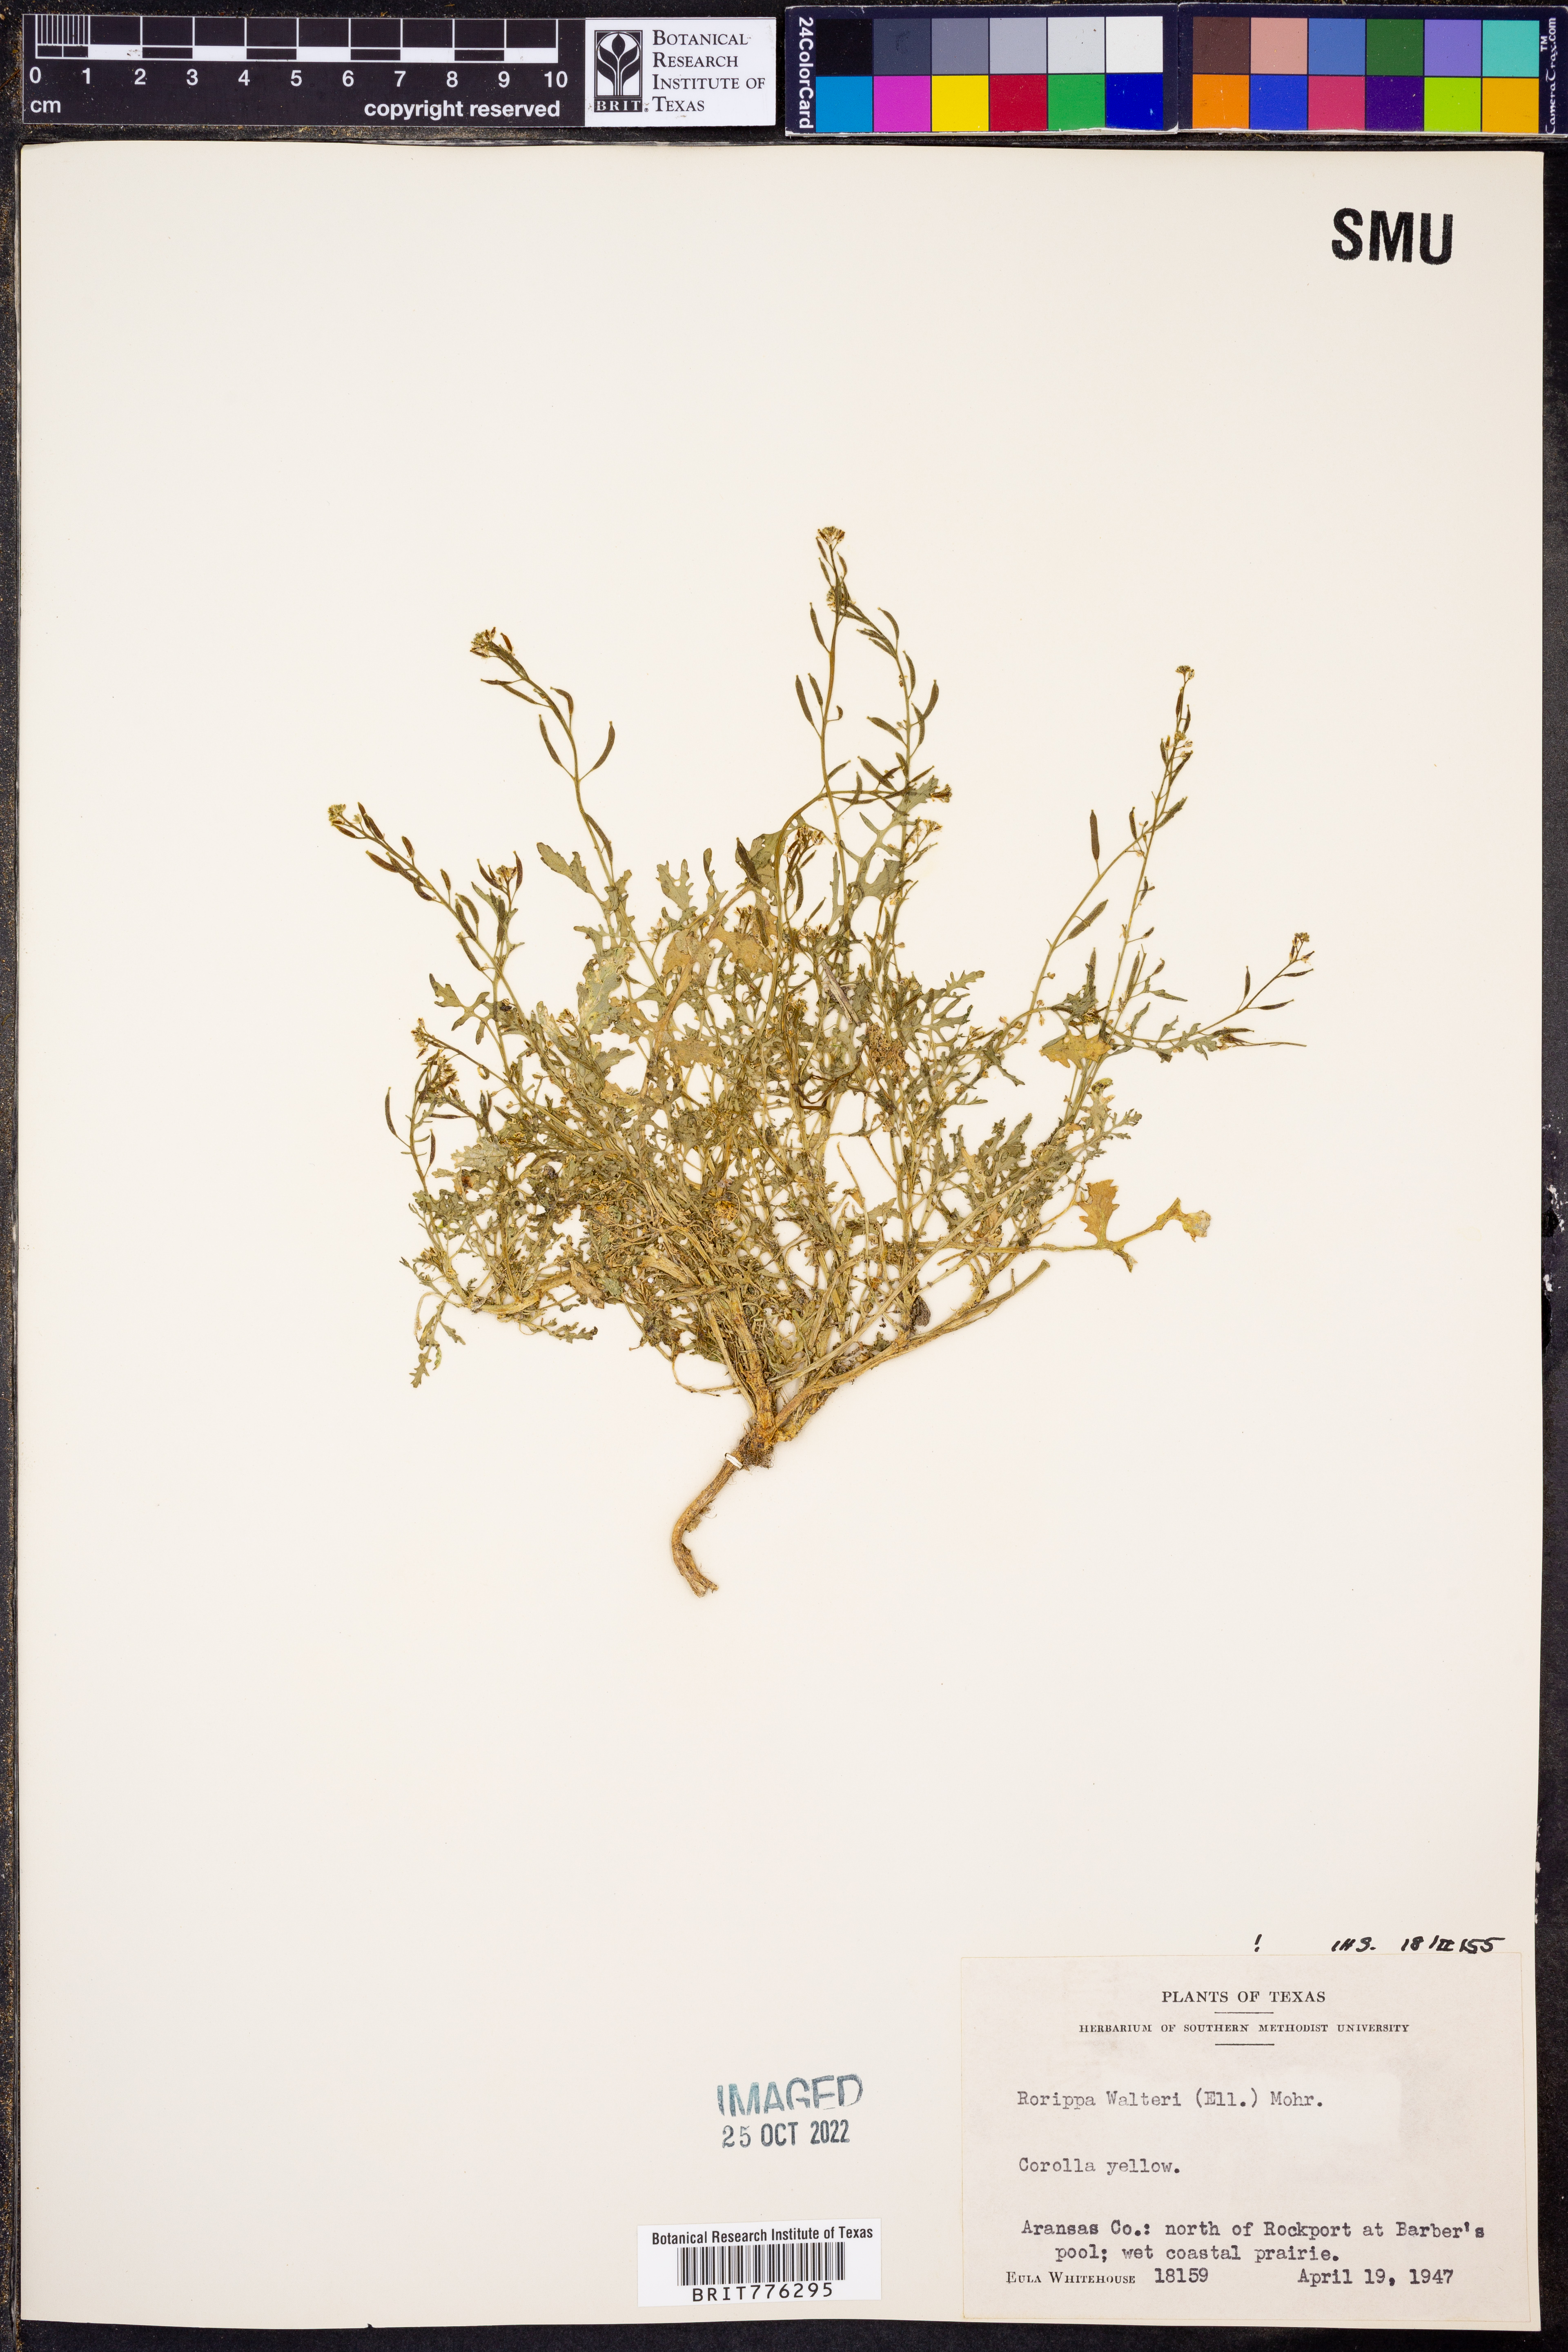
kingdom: Plantae
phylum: Tracheophyta
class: Magnoliopsida
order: Brassicales
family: Brassicaceae
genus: Rorippa
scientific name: Rorippa teres
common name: Southern marsh yellowcress
